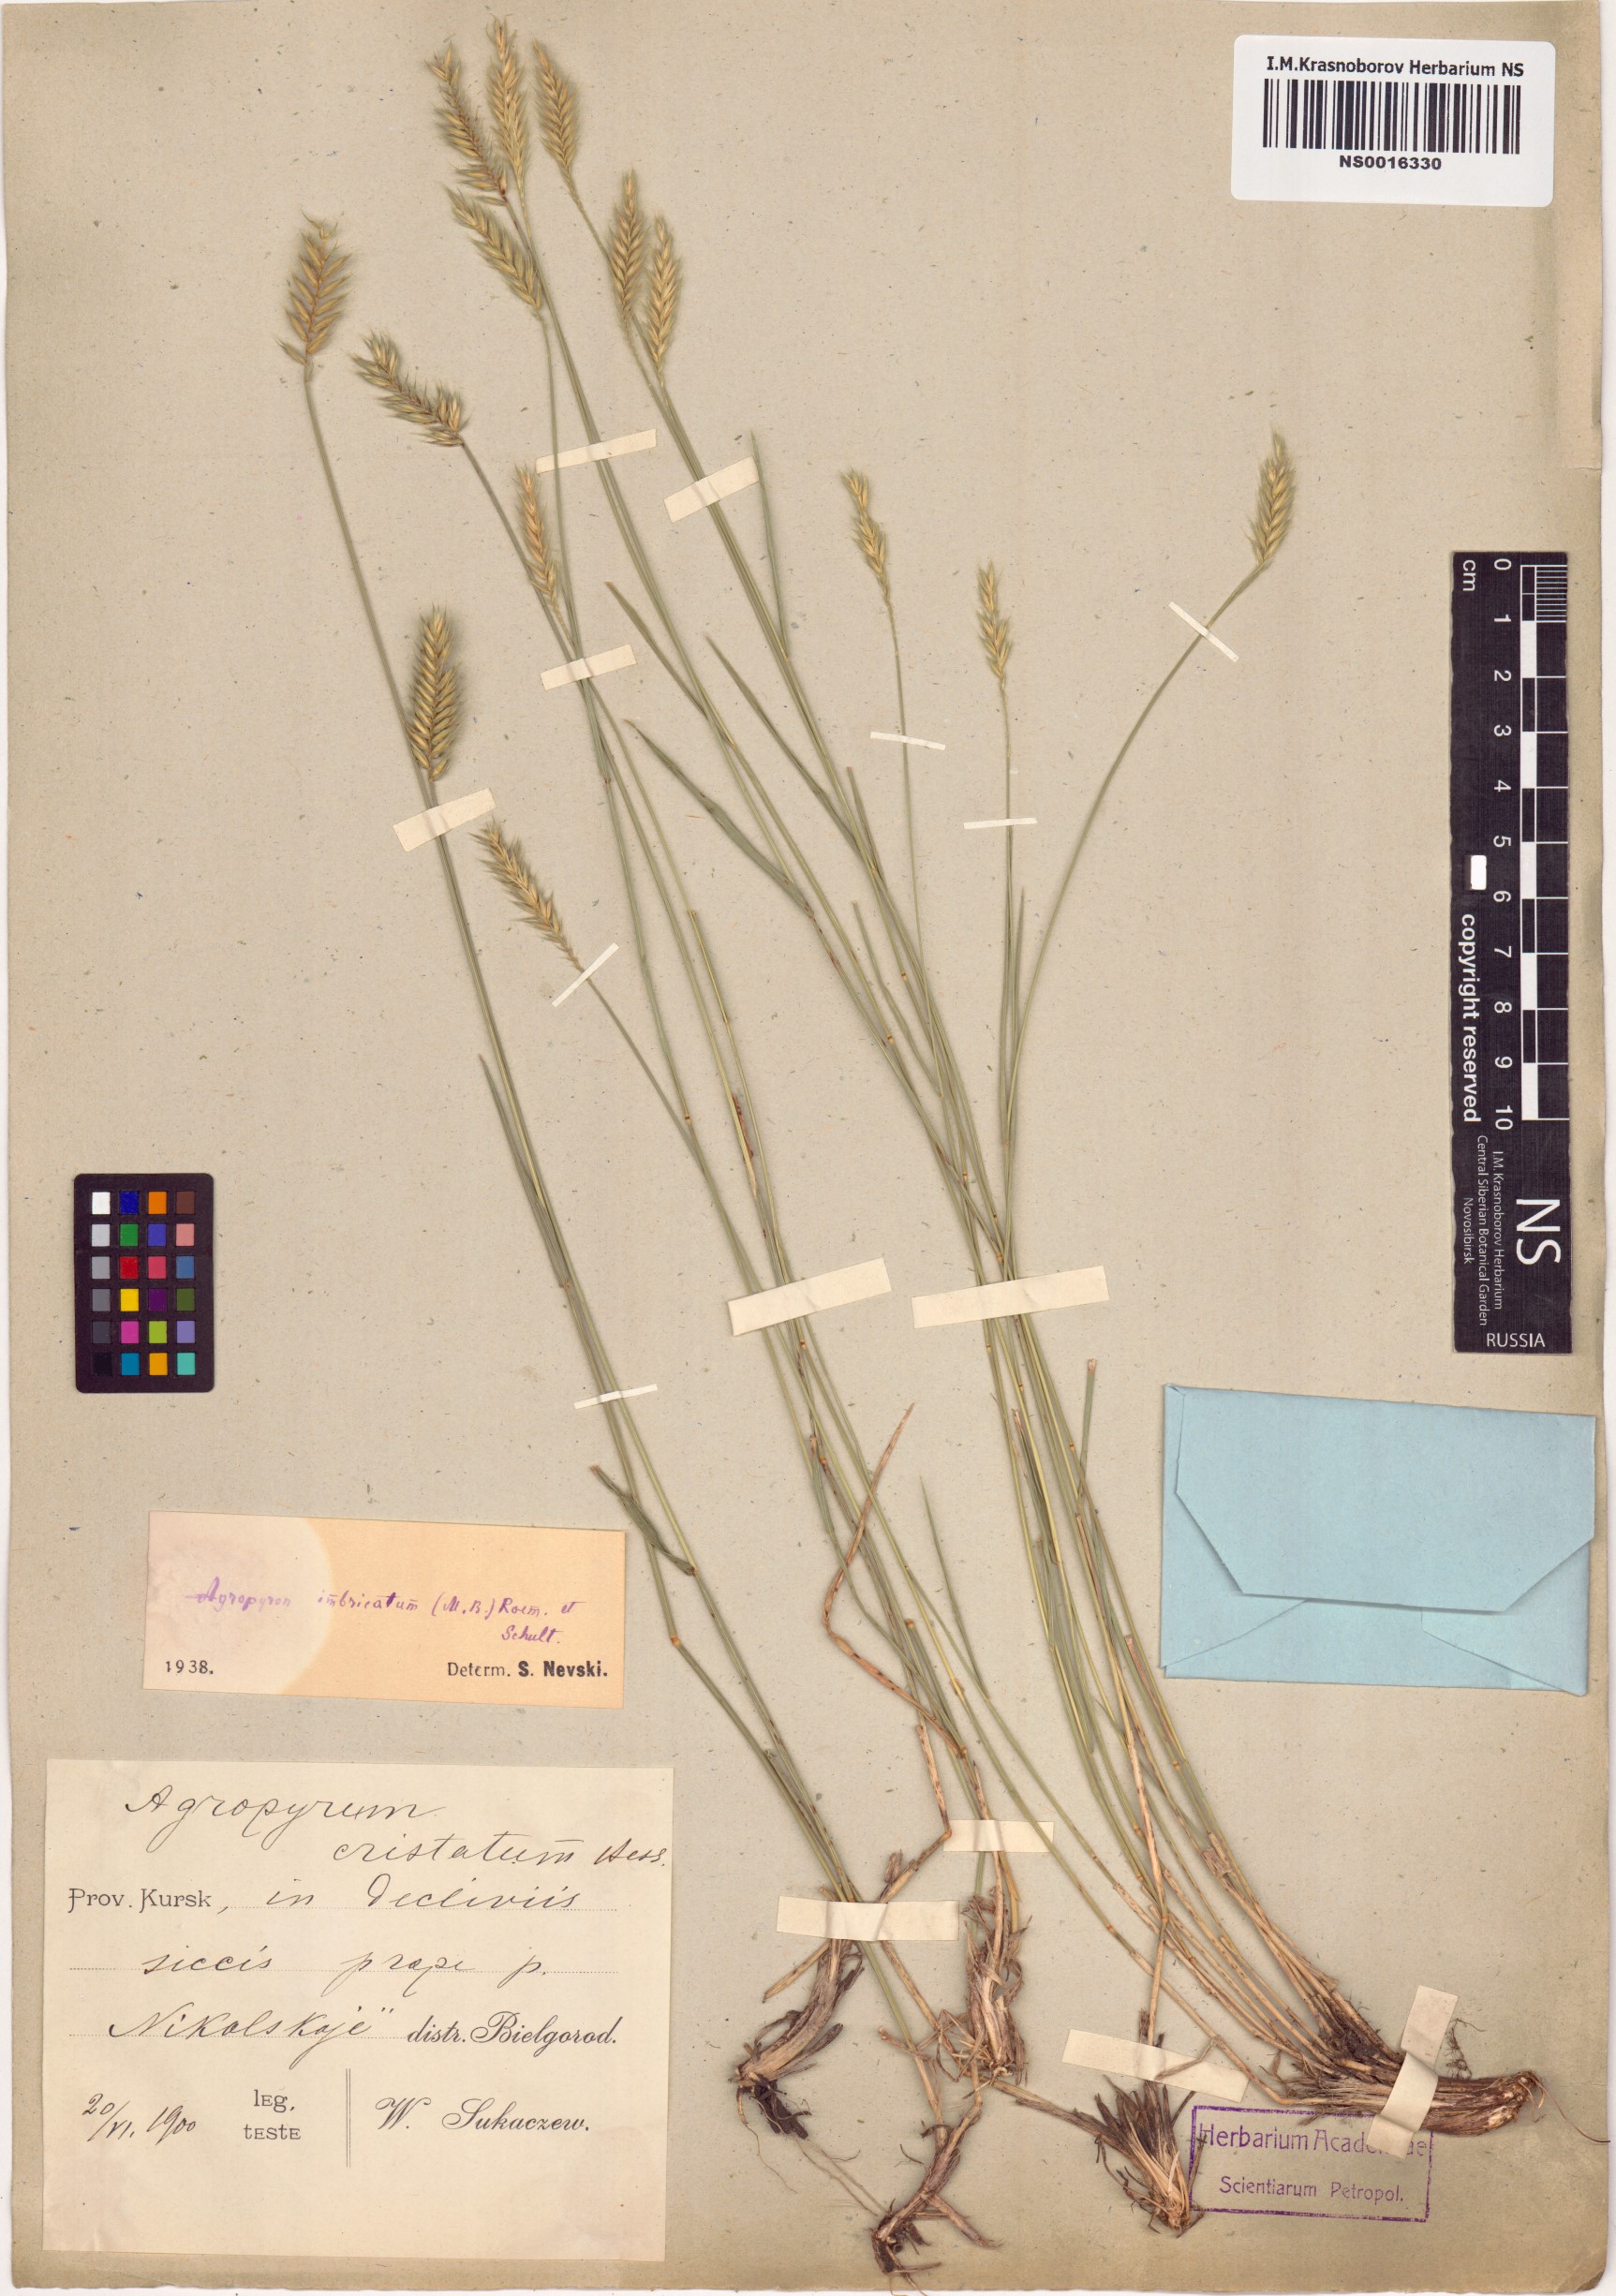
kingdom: Plantae
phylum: Tracheophyta
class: Liliopsida
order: Poales
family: Poaceae
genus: Agropyron
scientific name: Agropyron cristatum
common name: Crested wheatgrass
